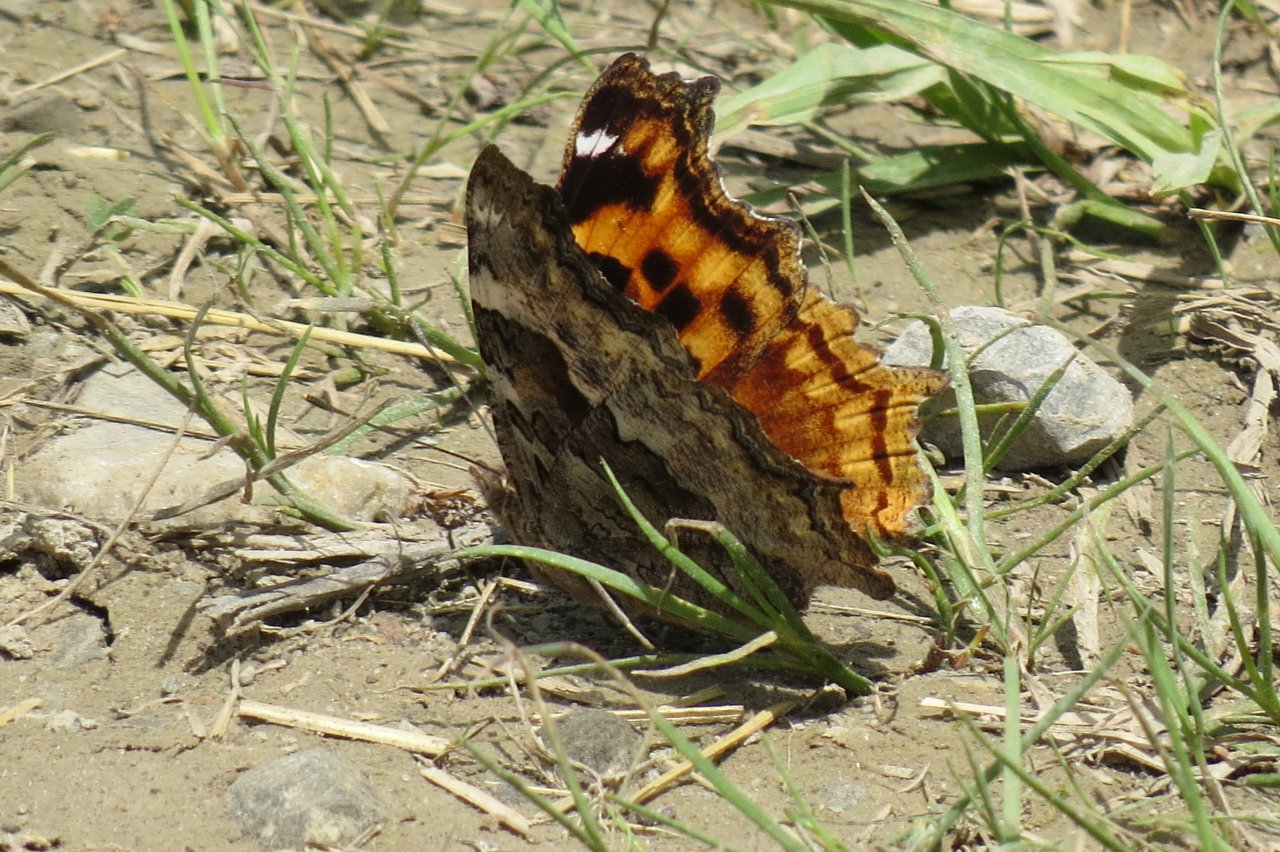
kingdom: Animalia
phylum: Arthropoda
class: Insecta
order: Lepidoptera
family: Nymphalidae
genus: Polygonia
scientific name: Polygonia vaualbum
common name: Compton Tortoiseshell
